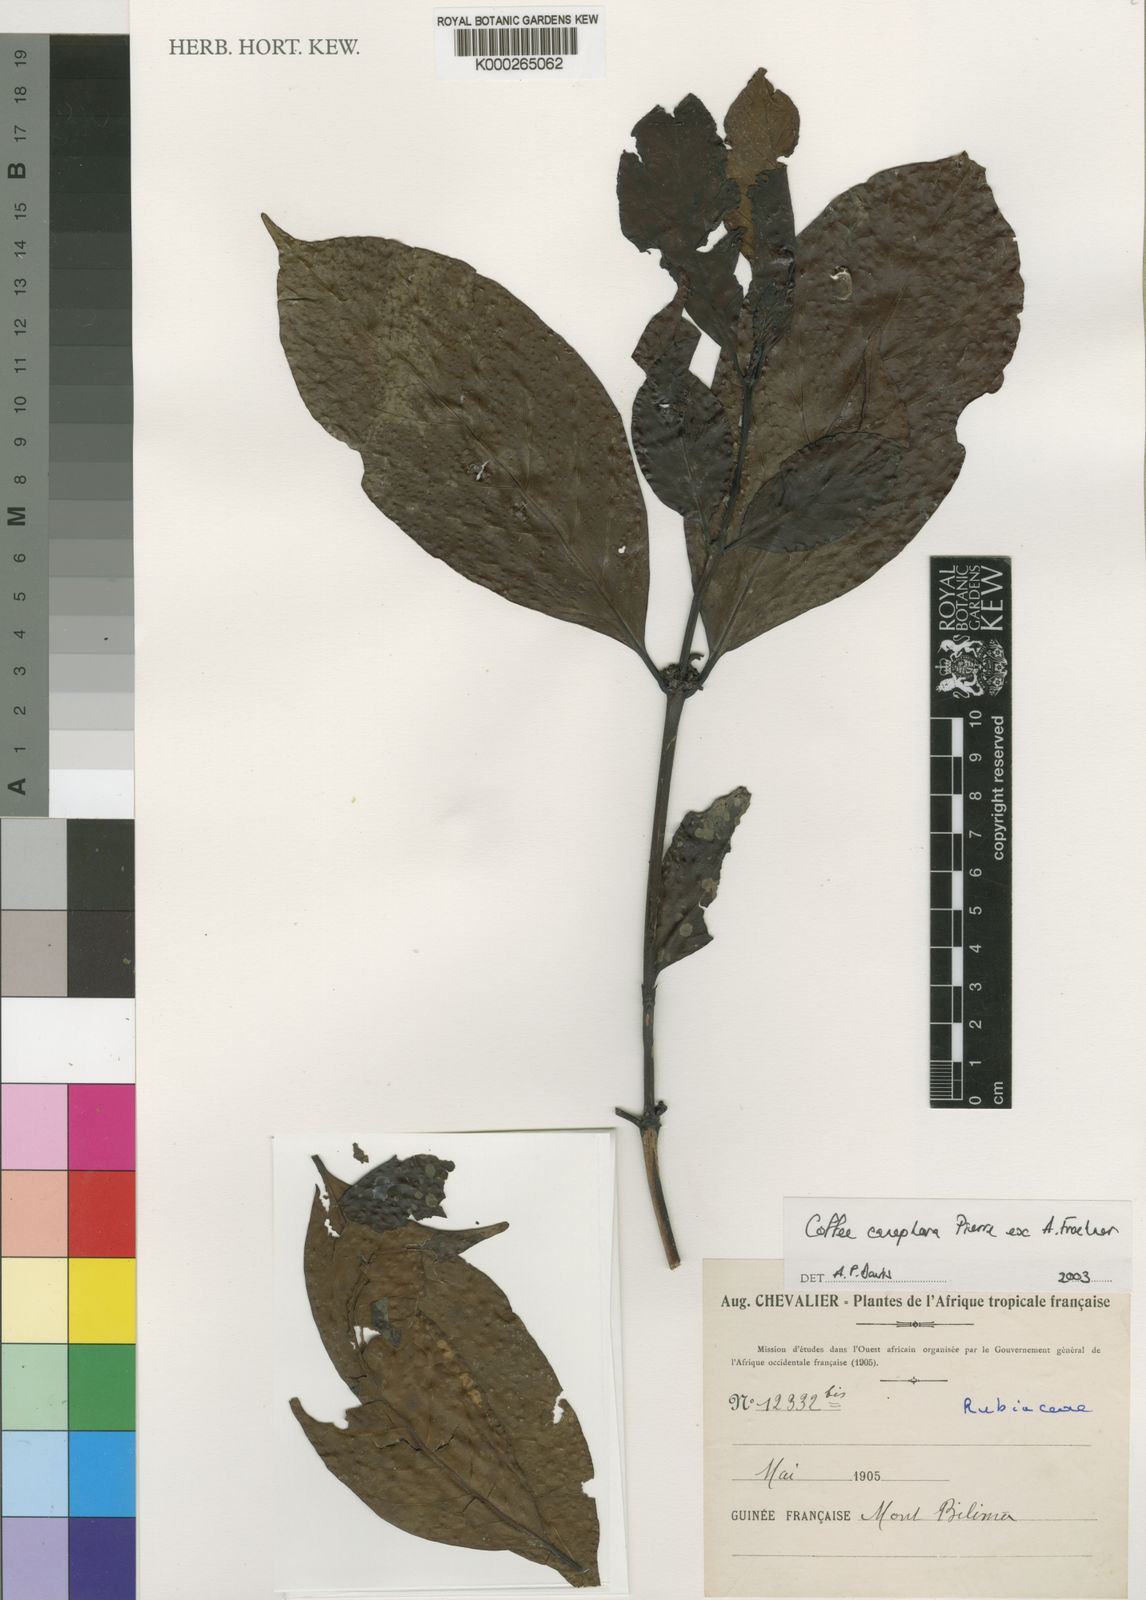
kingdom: Plantae
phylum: Tracheophyta
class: Magnoliopsida
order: Gentianales
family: Rubiaceae
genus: Coffea
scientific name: Coffea canephora
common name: Robusta coffee
